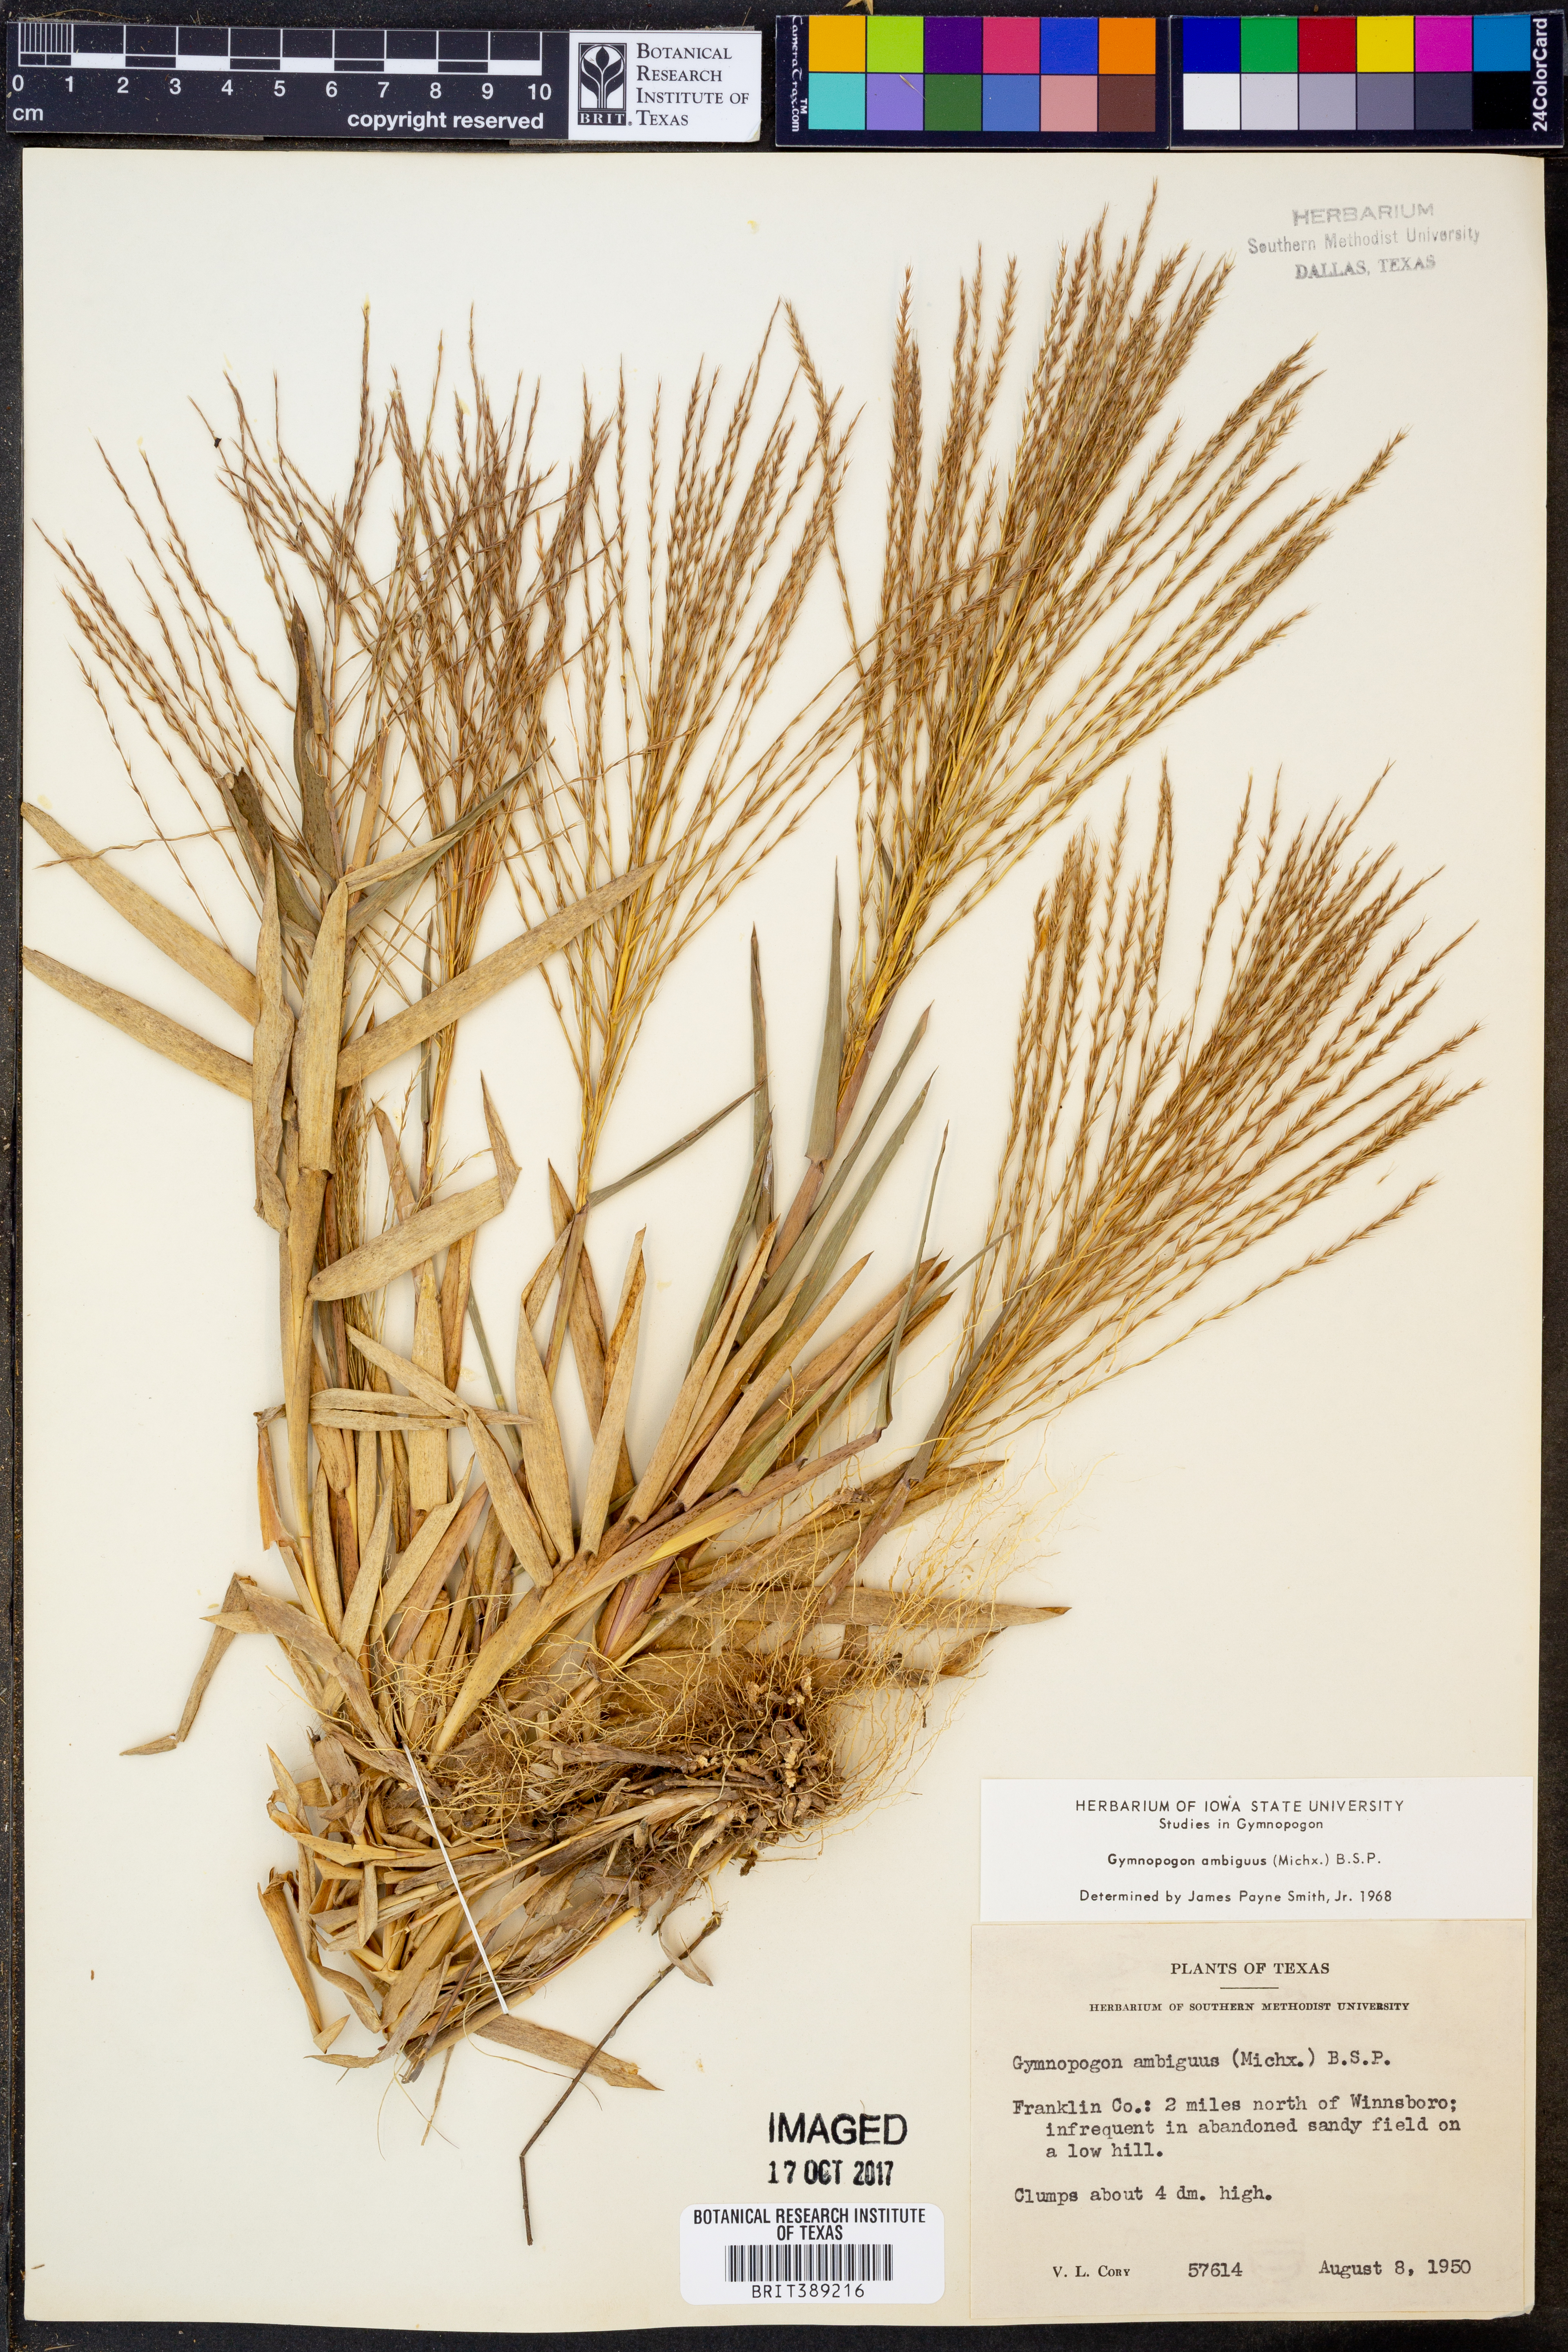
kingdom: Plantae
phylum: Tracheophyta
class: Liliopsida
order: Poales
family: Poaceae
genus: Gymnopogon
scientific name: Gymnopogon ambiguus
